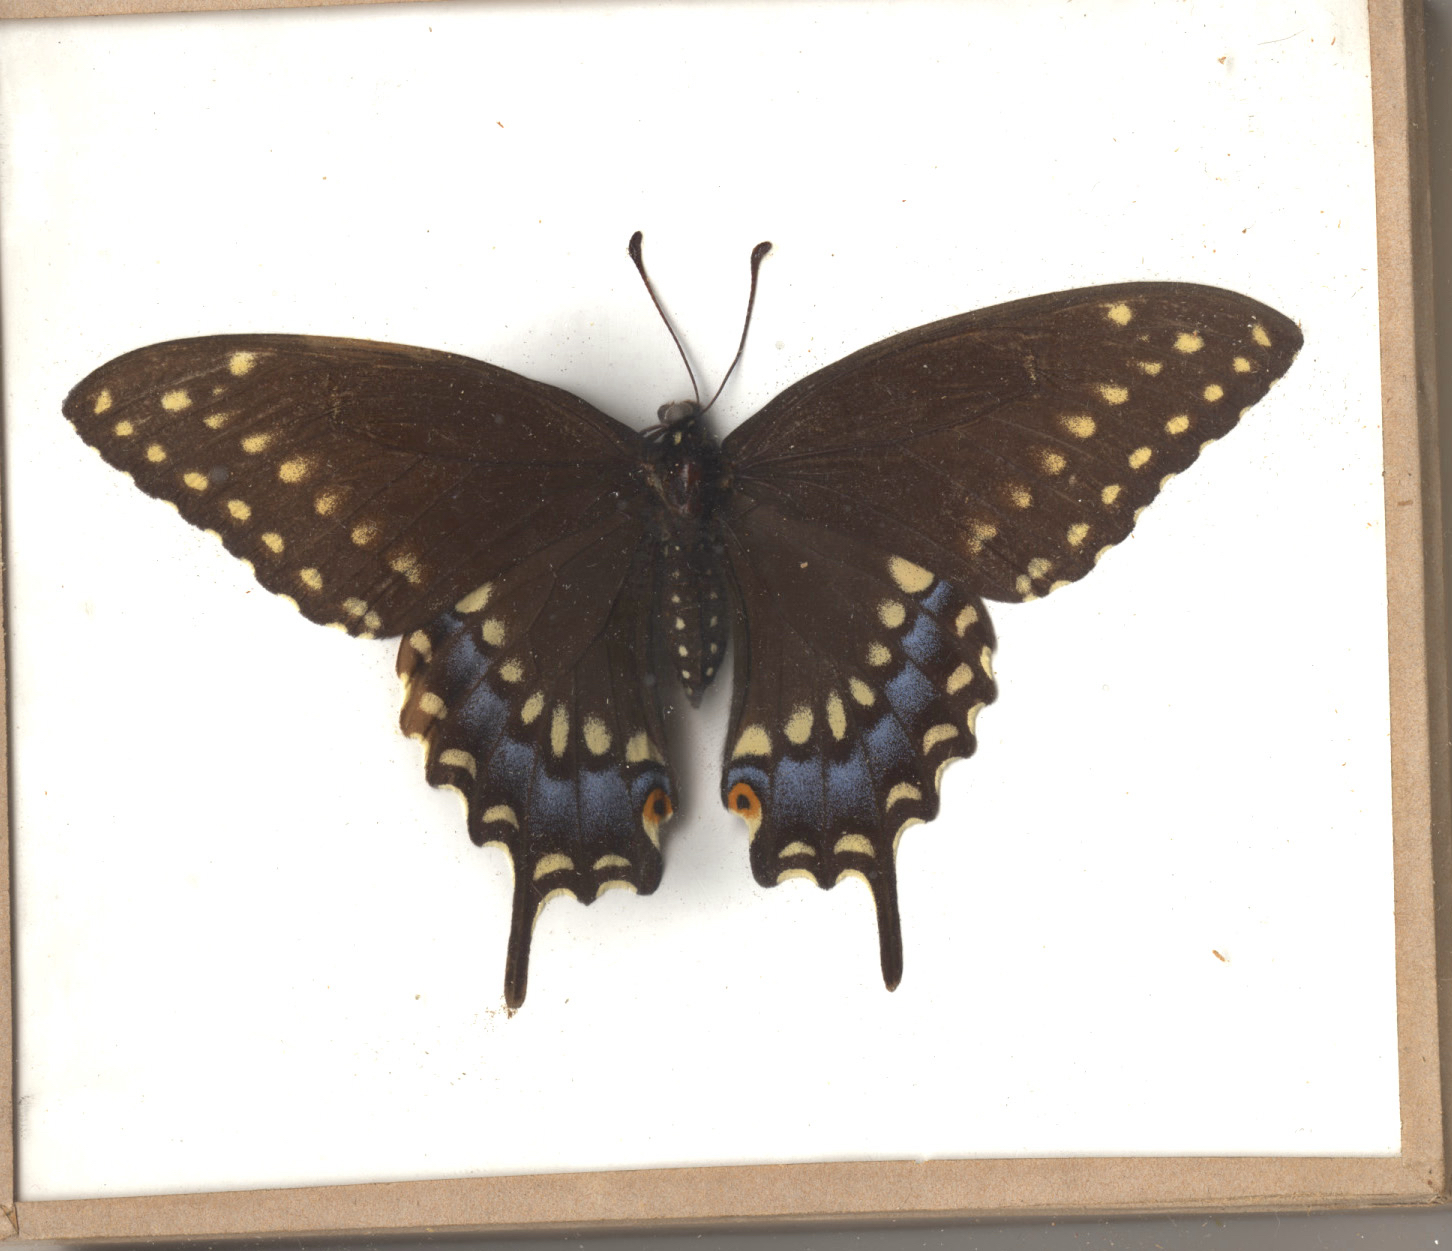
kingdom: Animalia
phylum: Arthropoda
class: Insecta
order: Lepidoptera
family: Papilionidae
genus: Papilio
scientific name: Papilio polyxenes
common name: Black Swallowtail
